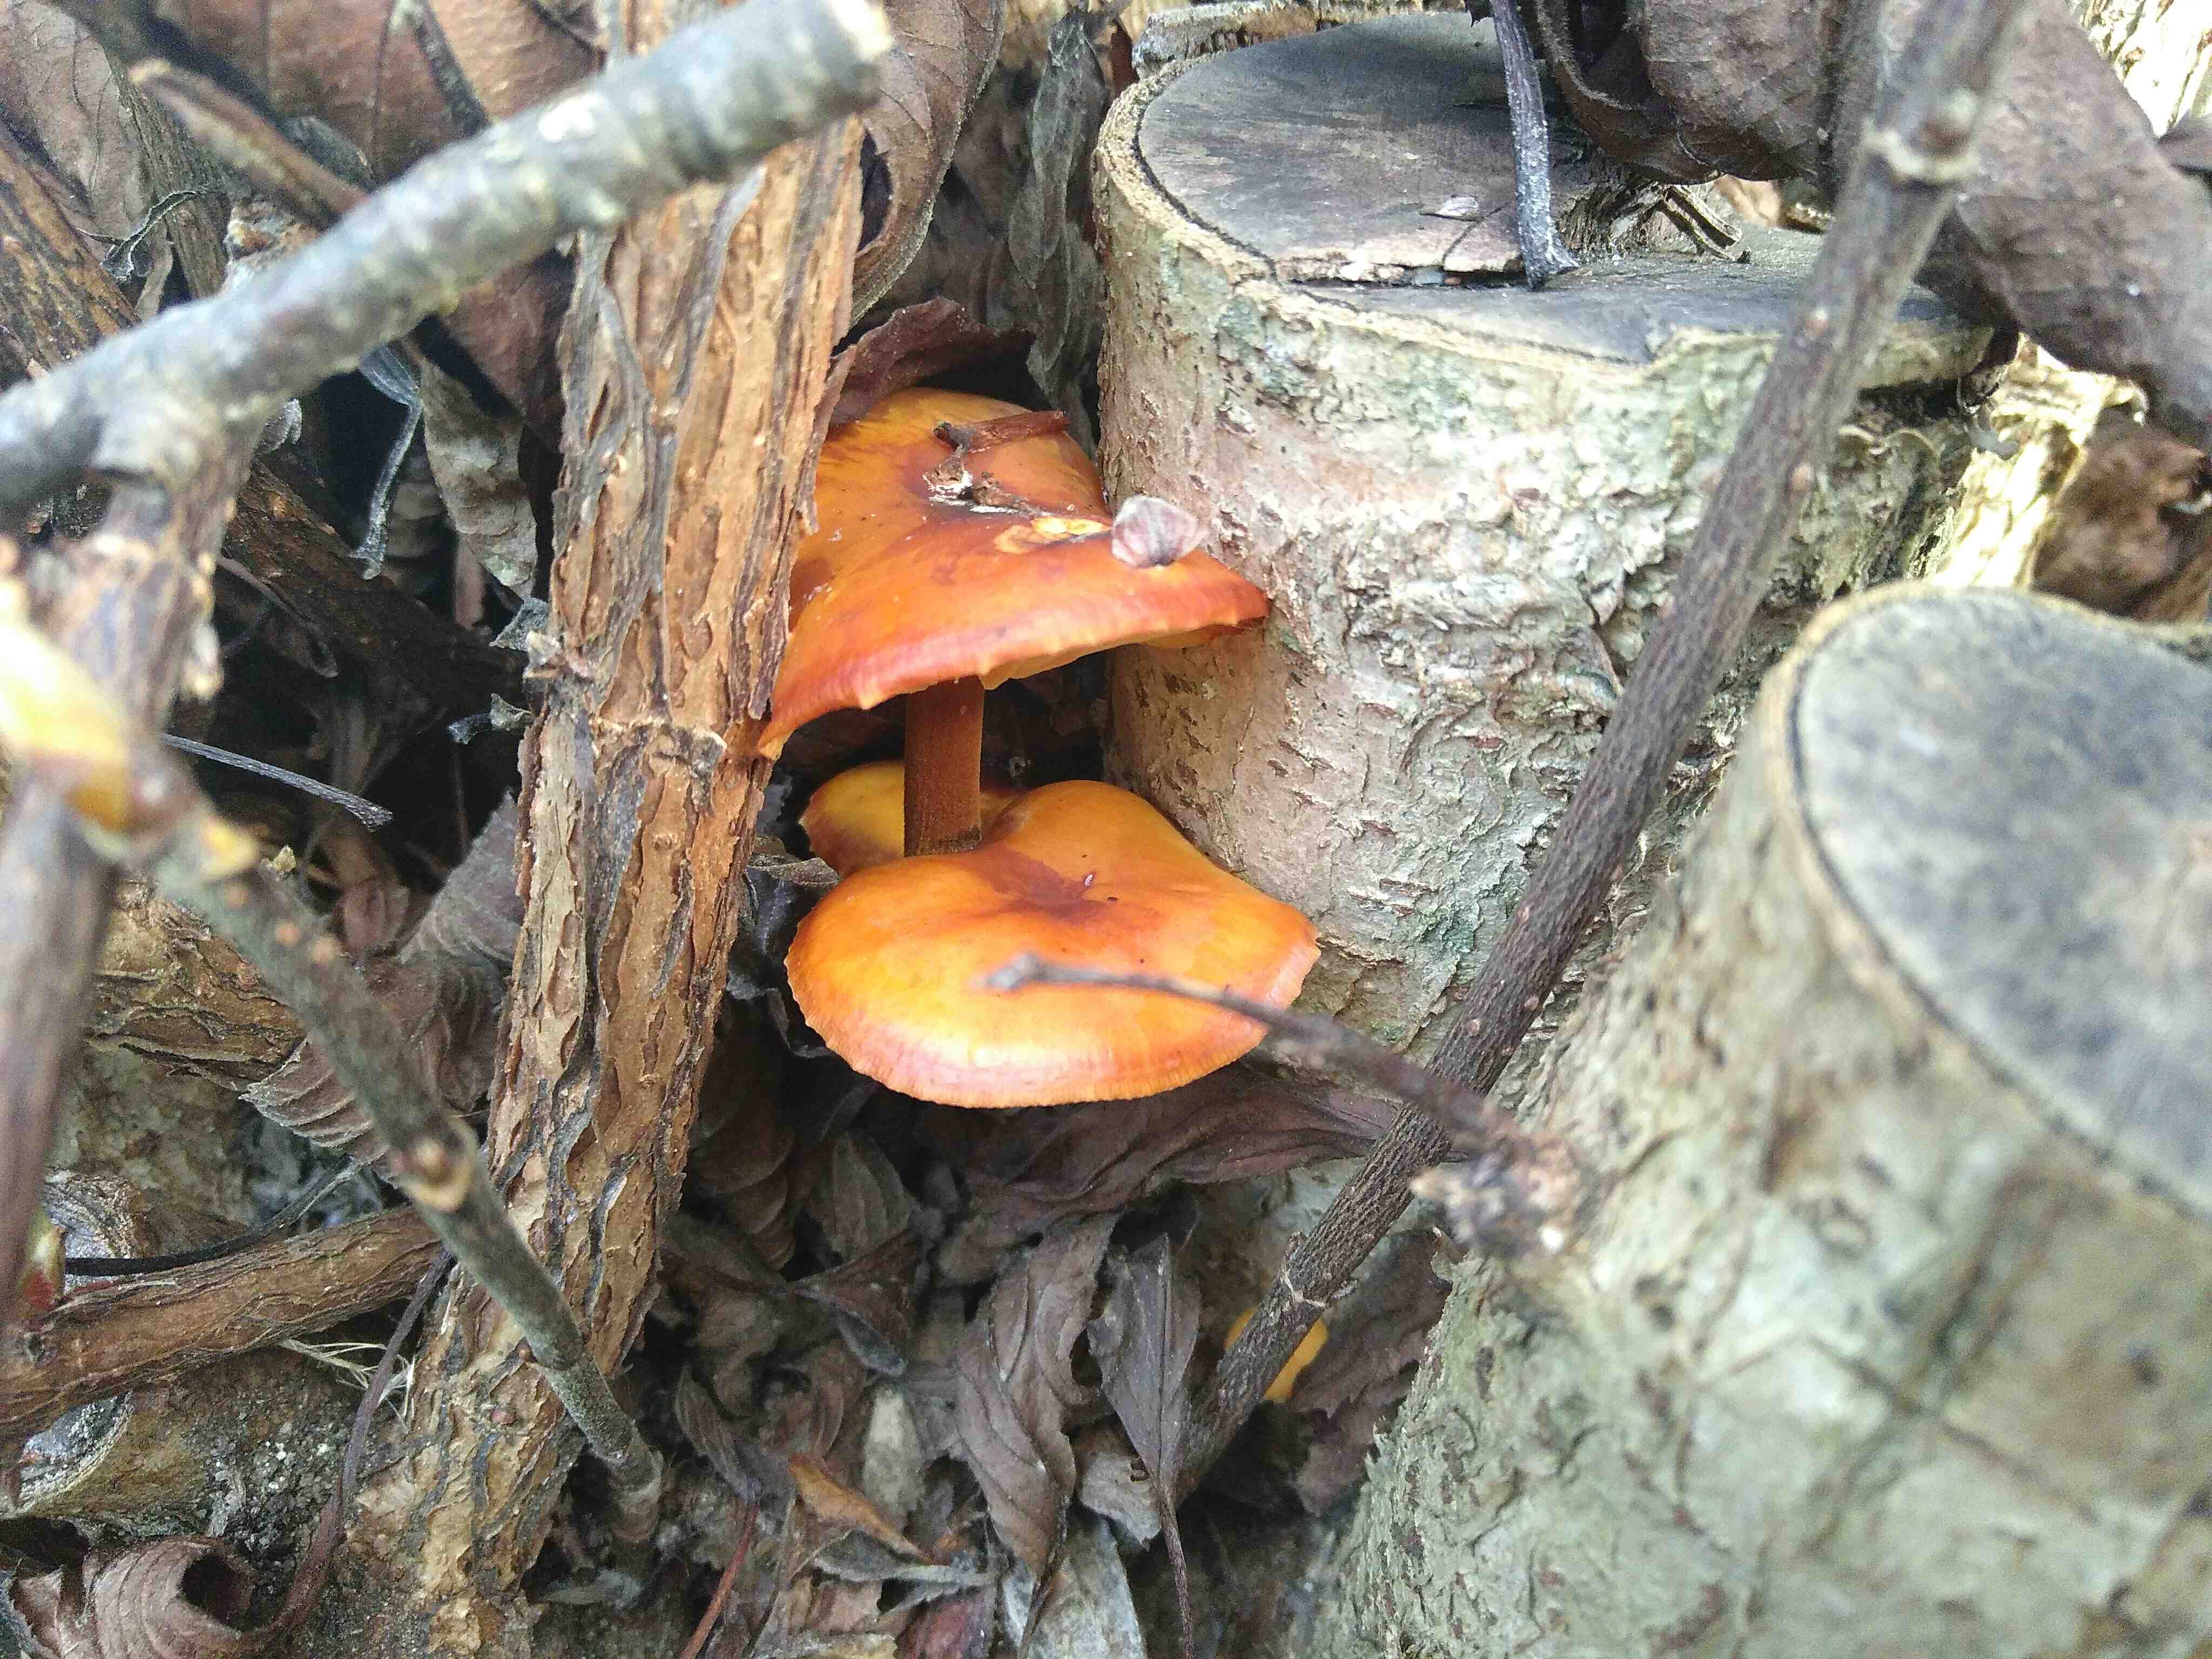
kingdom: Fungi
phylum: Basidiomycota
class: Agaricomycetes
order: Agaricales
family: Physalacriaceae
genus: Flammulina
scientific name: Flammulina velutipes
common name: gul fløjlsfod
